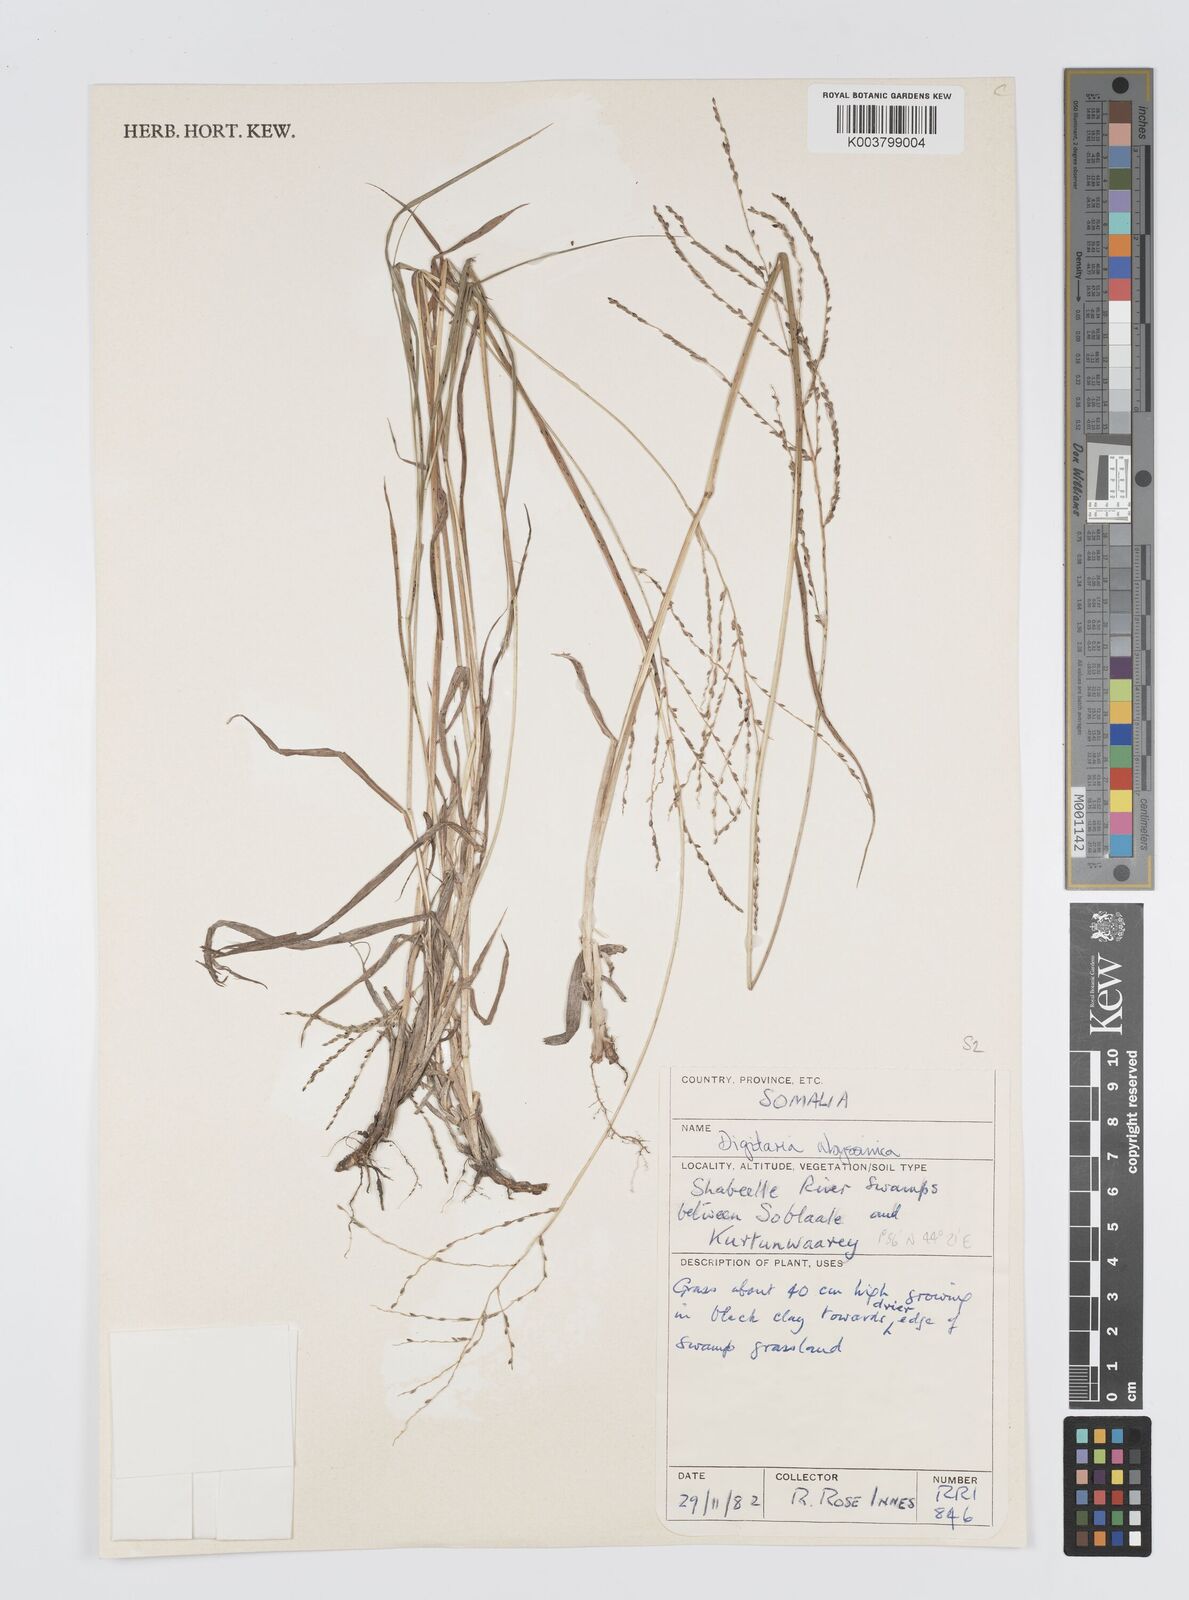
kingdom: Plantae
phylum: Tracheophyta
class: Liliopsida
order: Poales
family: Poaceae
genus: Digitaria
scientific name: Digitaria abyssinica
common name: African couchgrass
